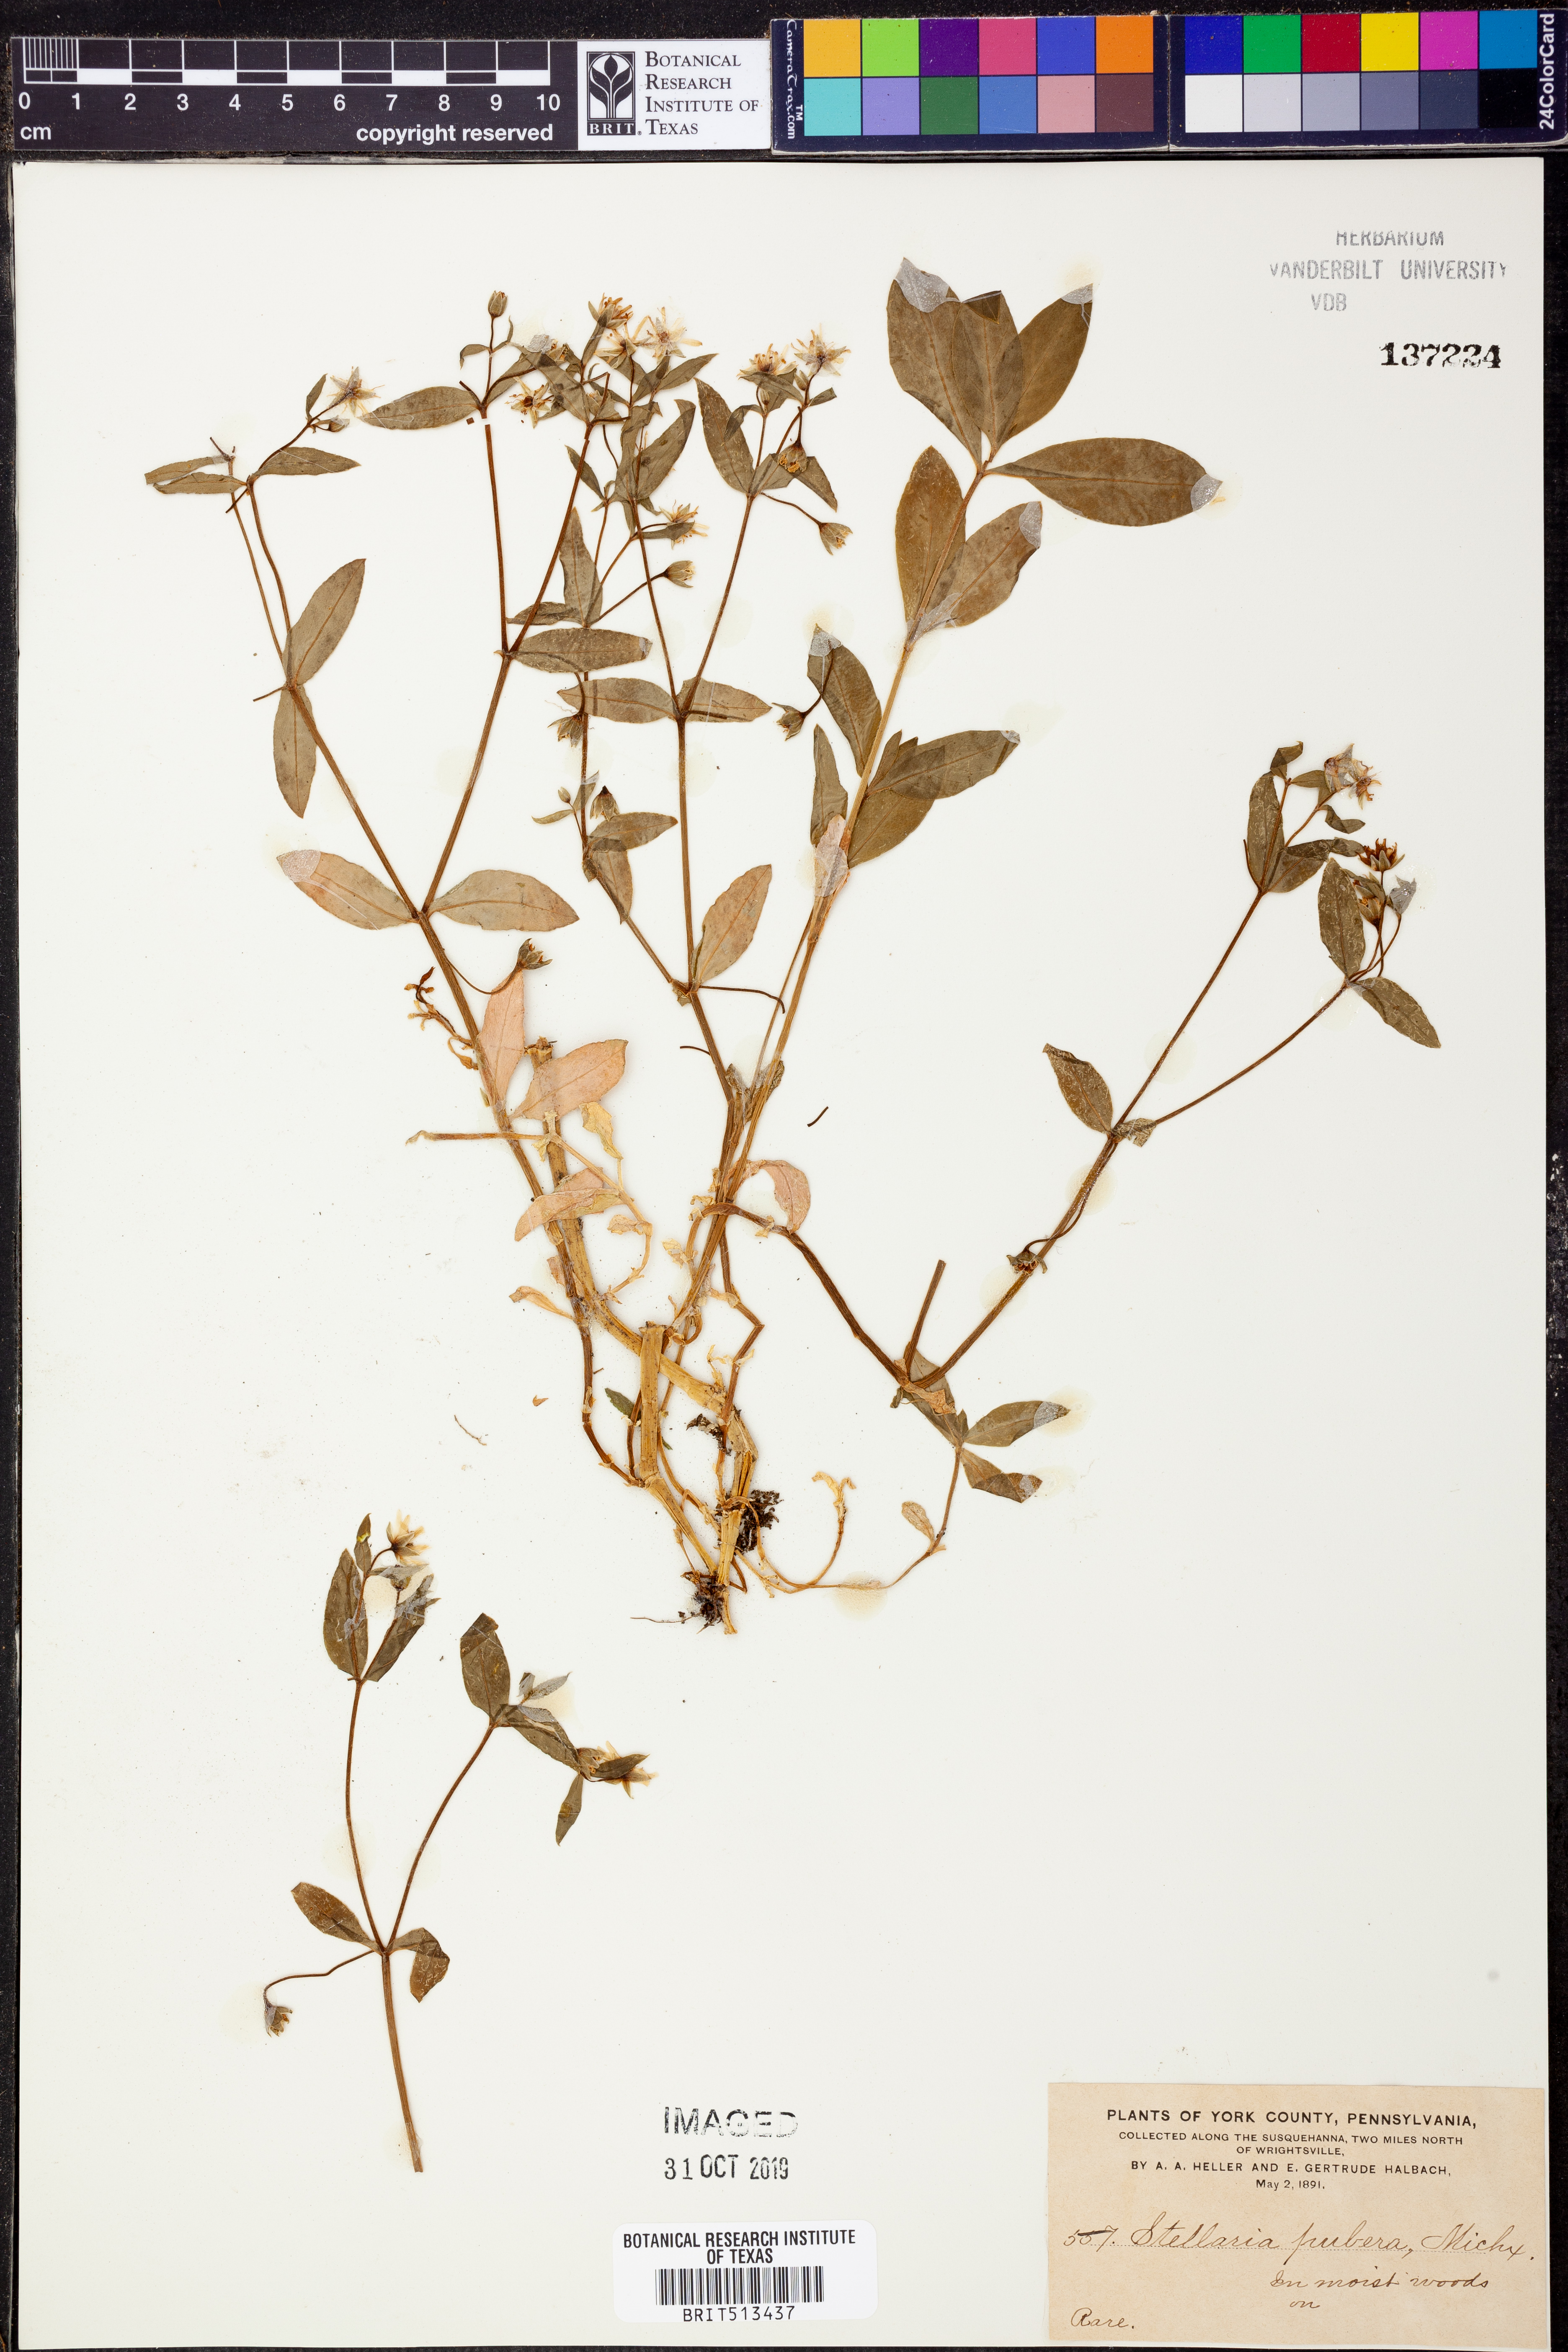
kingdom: Plantae
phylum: Tracheophyta
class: Magnoliopsida
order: Caryophyllales
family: Caryophyllaceae
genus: Stellaria
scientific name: Stellaria pubera
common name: Star chickweed
